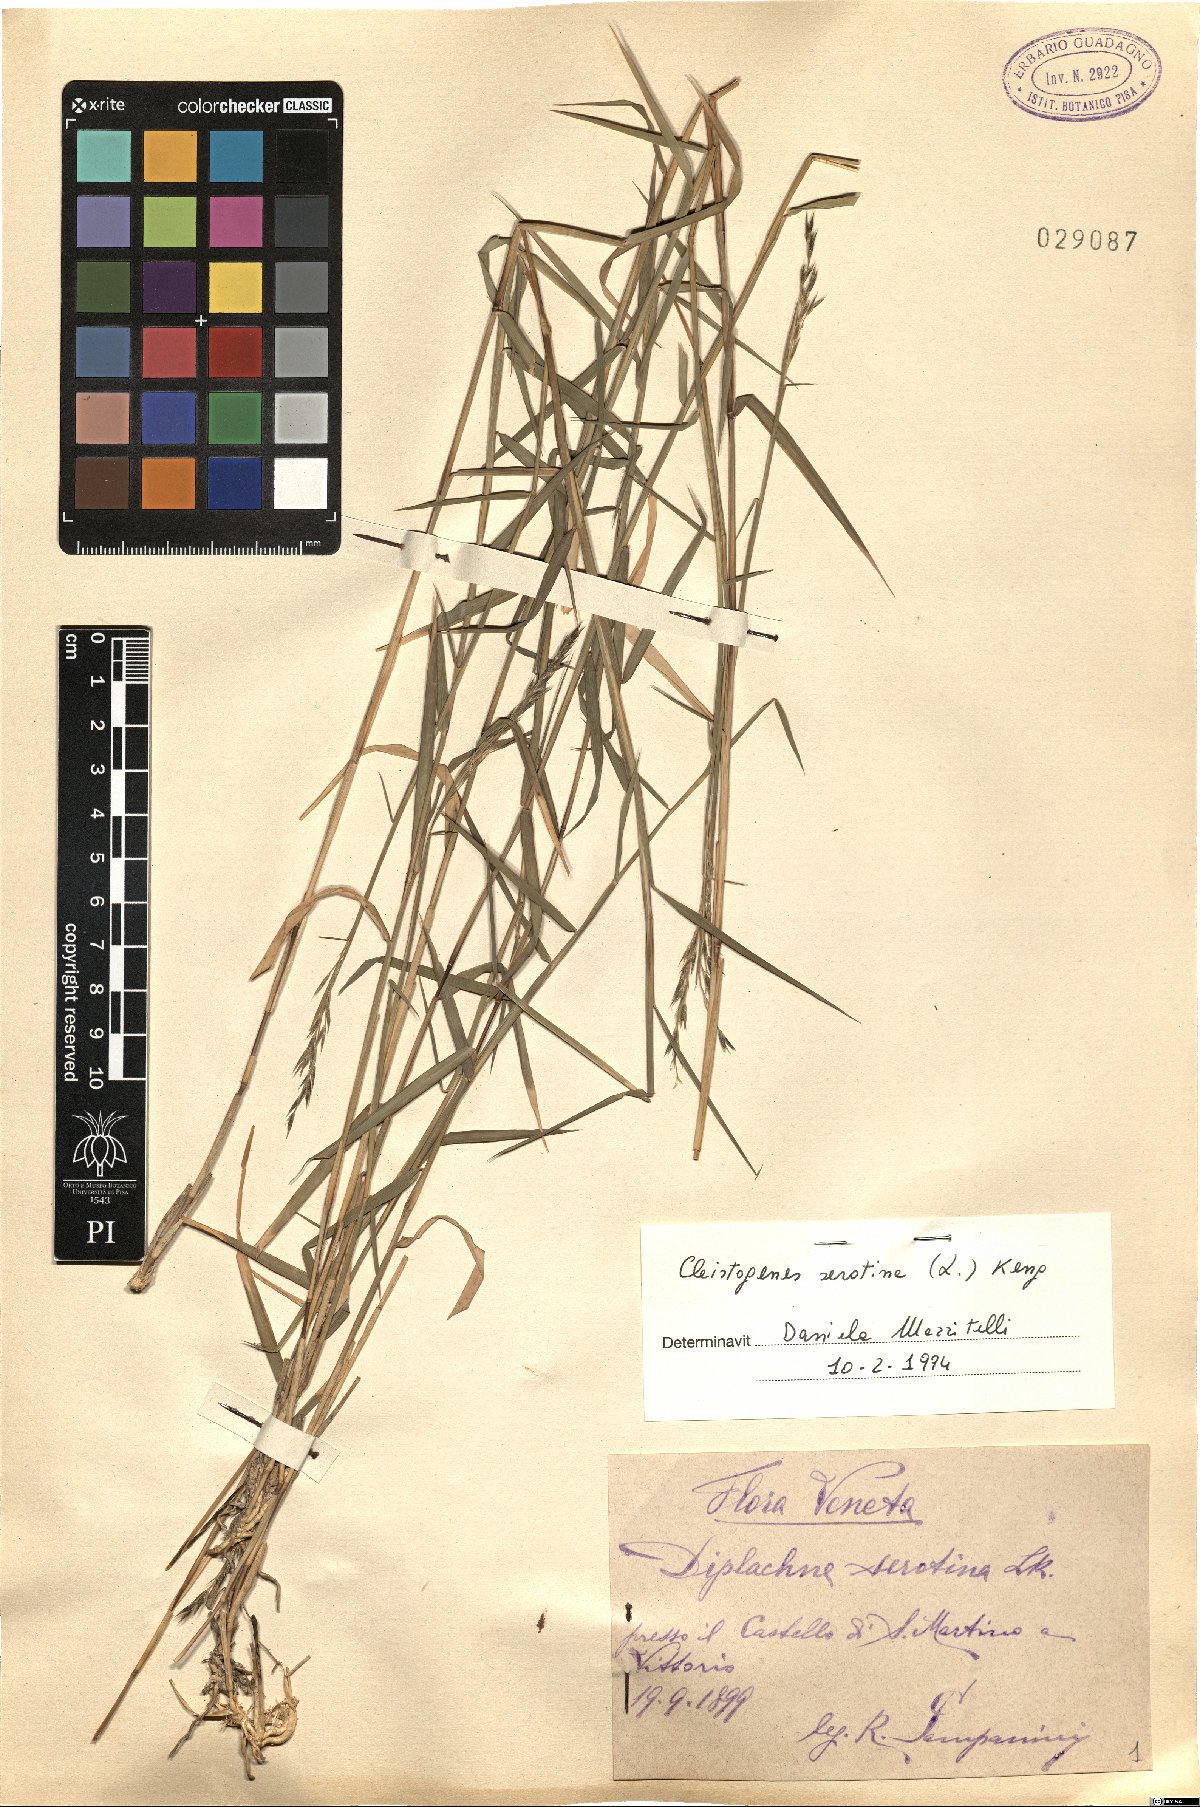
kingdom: Plantae
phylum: Tracheophyta
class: Liliopsida
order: Poales
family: Poaceae
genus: Cleistogenes
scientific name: Cleistogenes serotina
